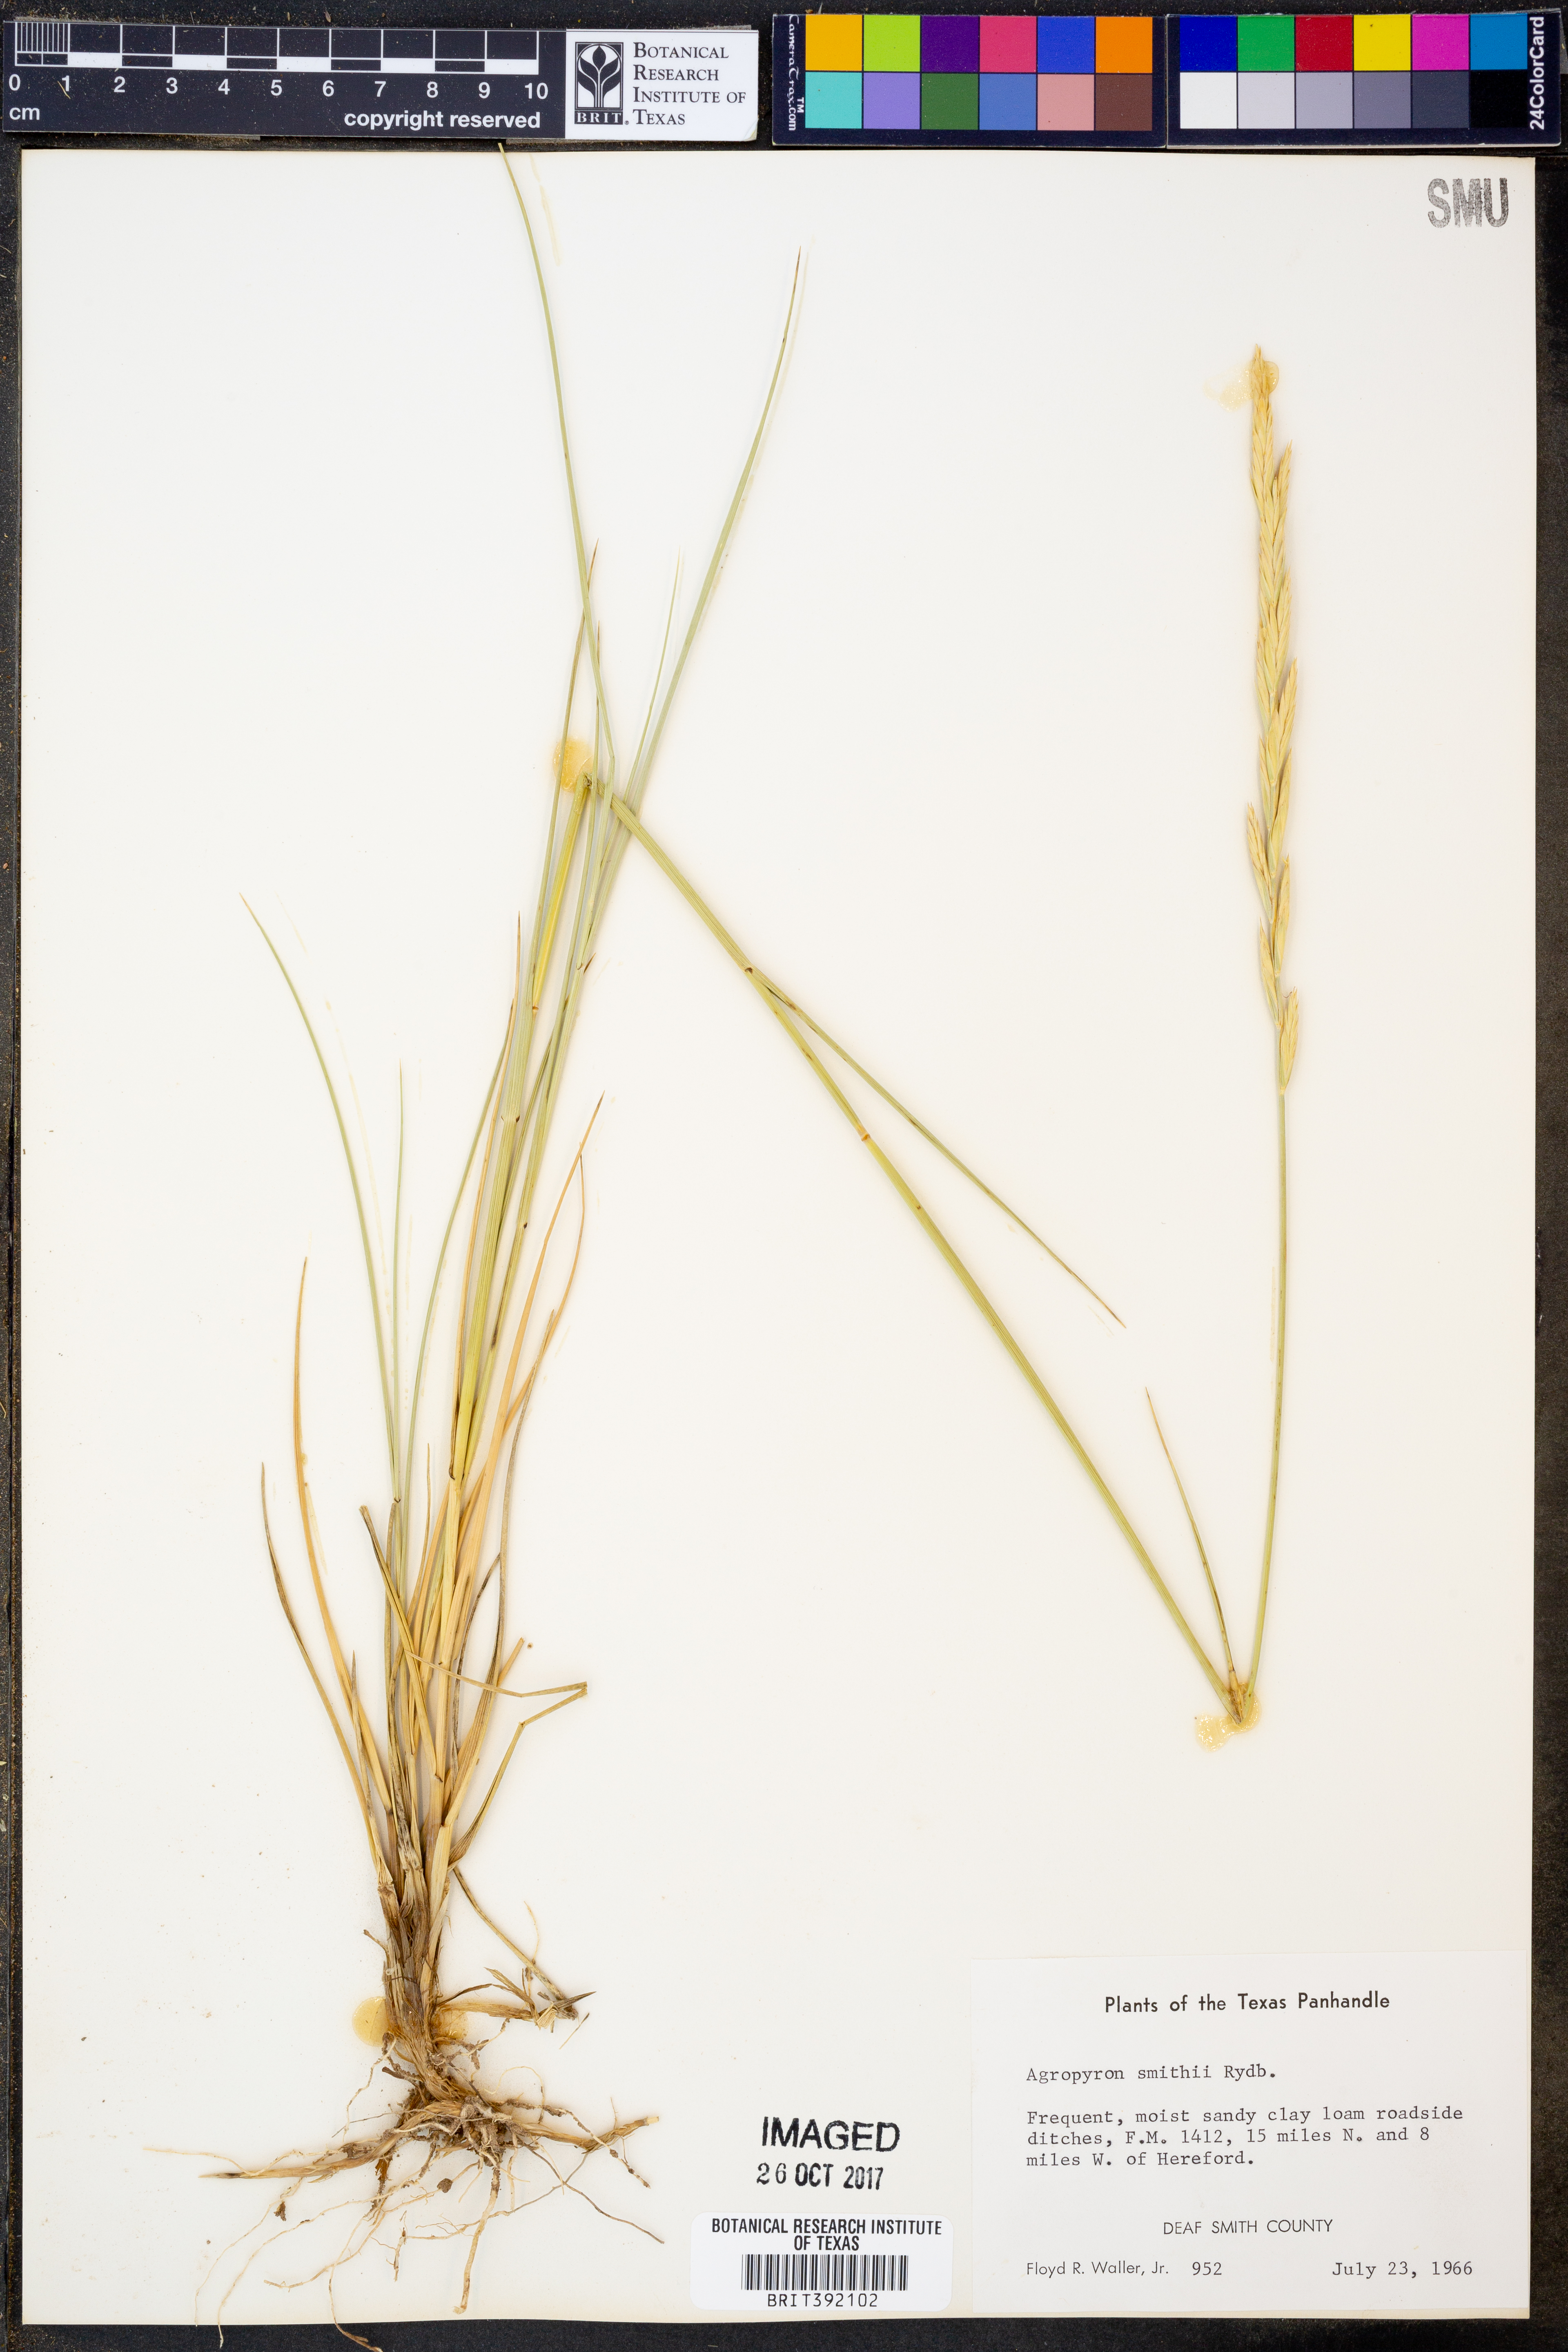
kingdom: Plantae
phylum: Tracheophyta
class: Liliopsida
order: Poales
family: Poaceae
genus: Elymus
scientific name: Elymus smithii
